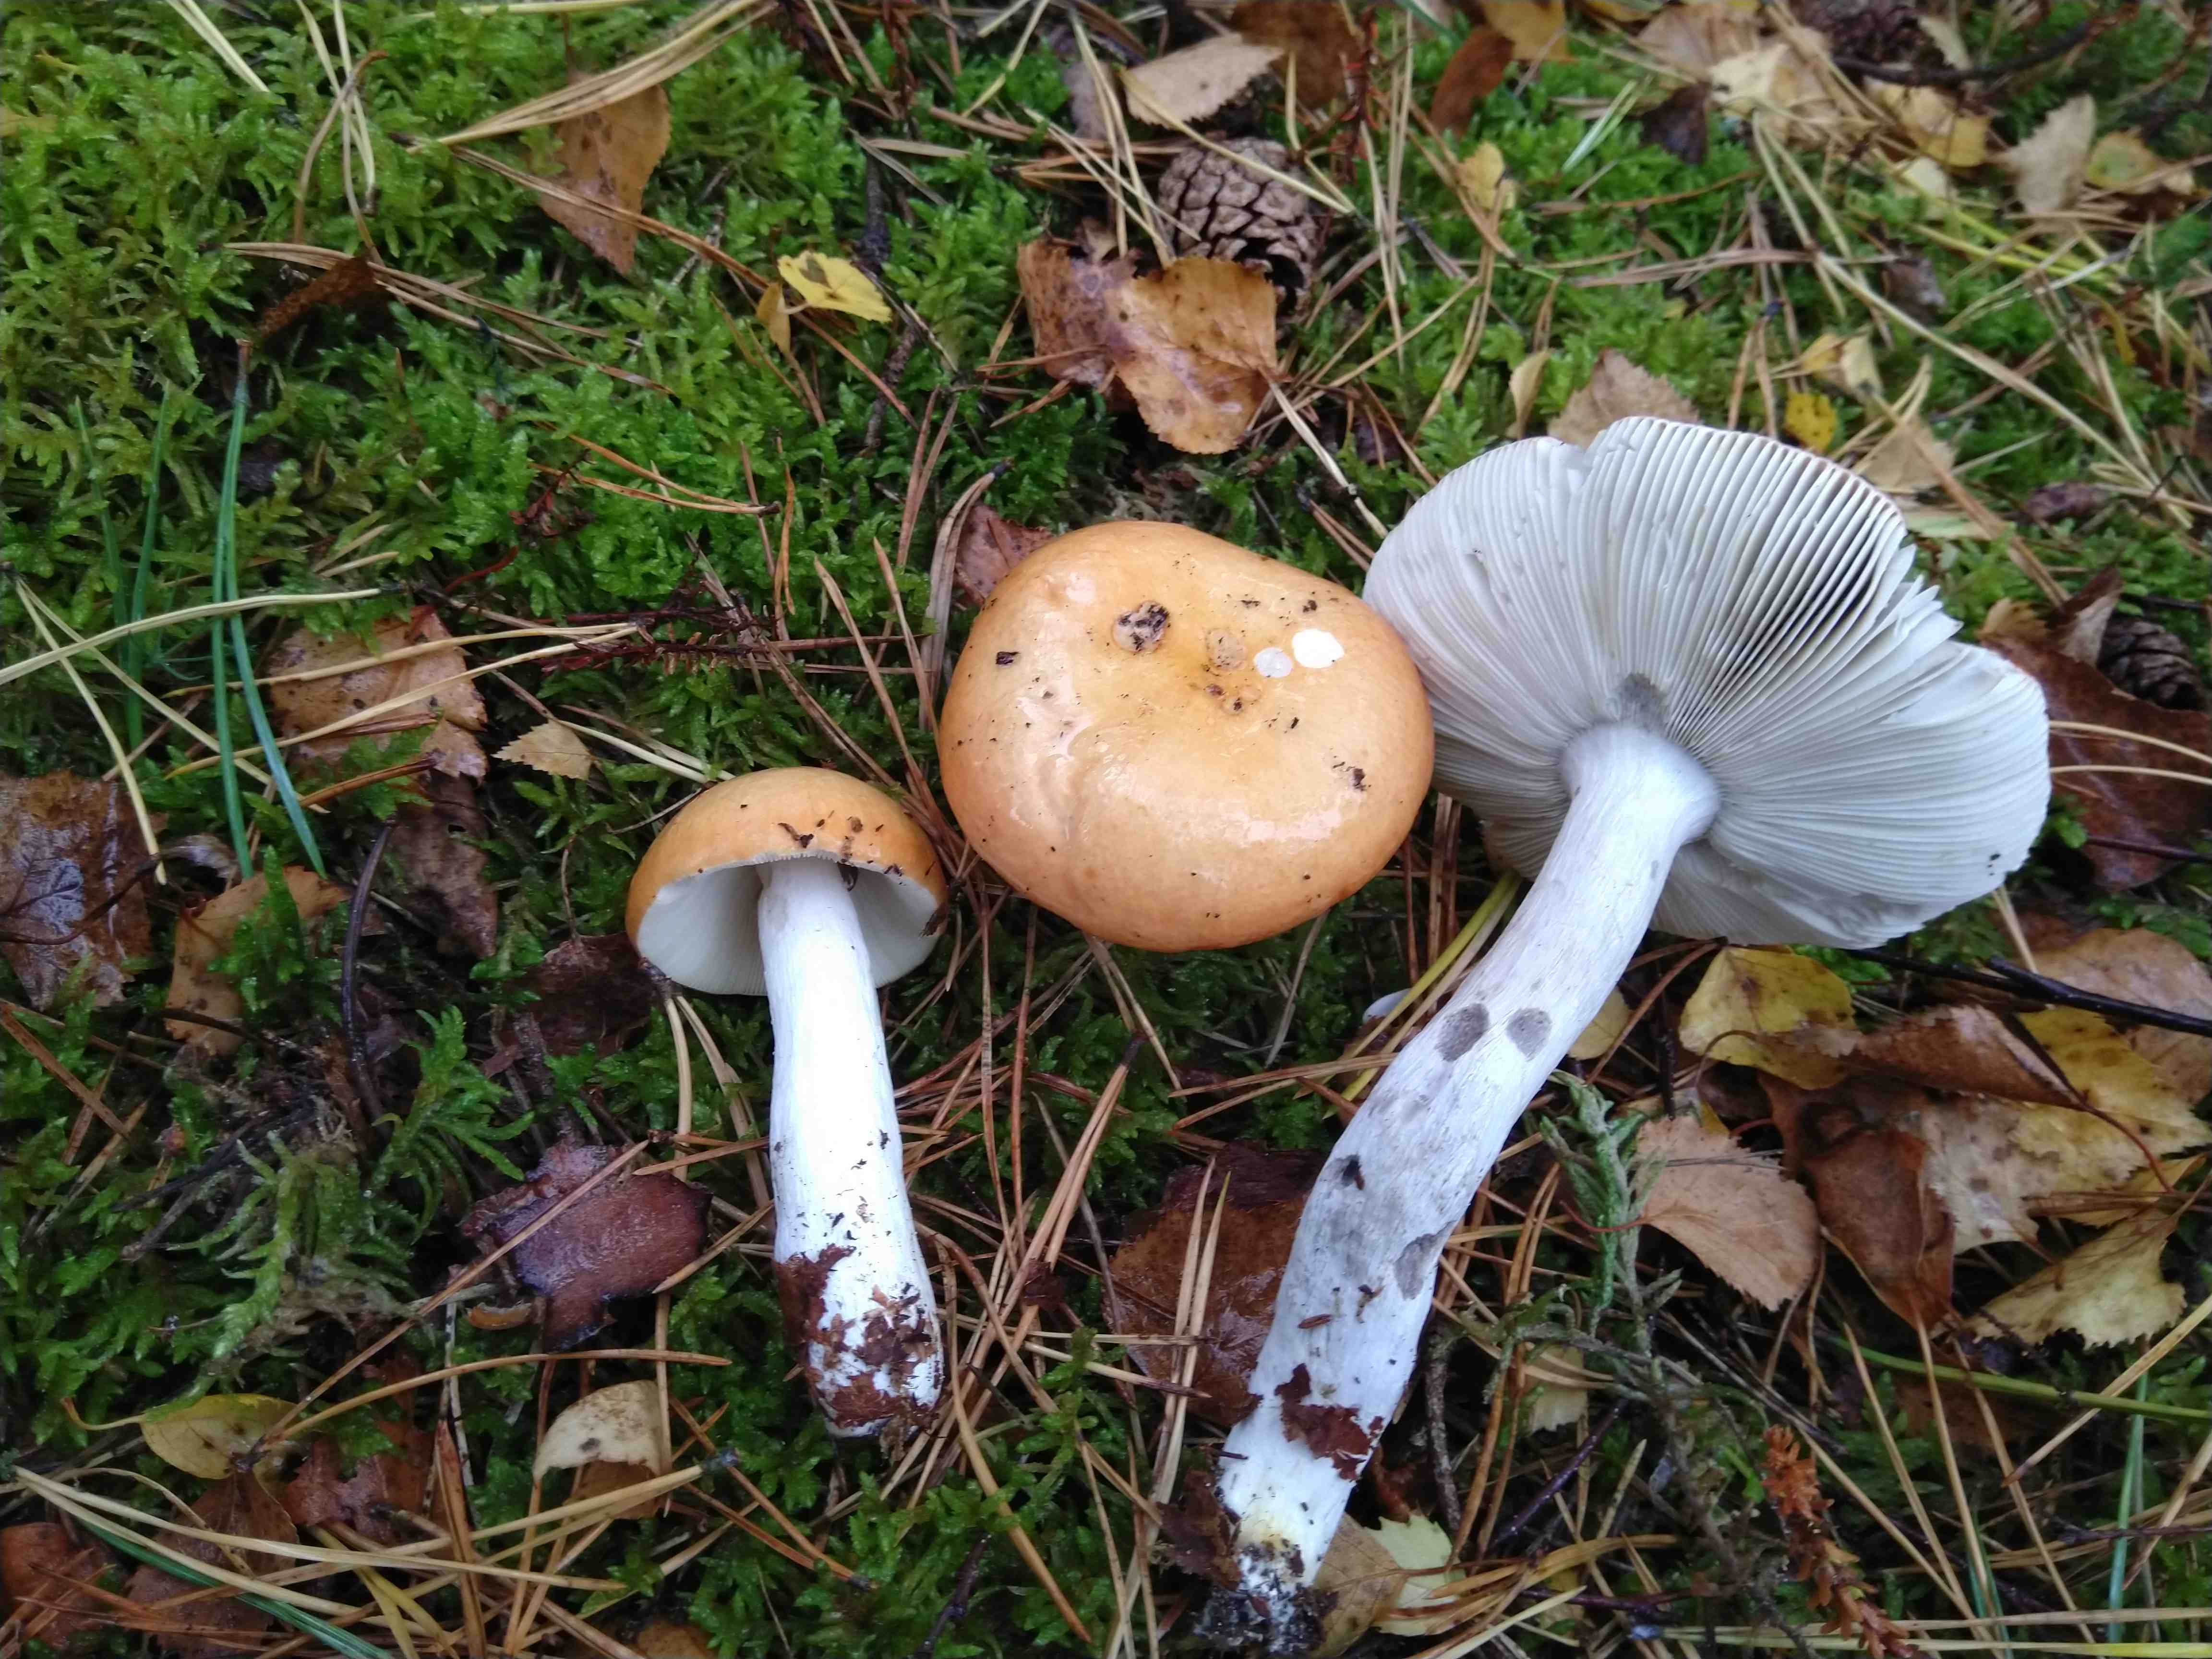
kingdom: Fungi
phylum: Basidiomycota
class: Agaricomycetes
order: Russulales
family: Russulaceae
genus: Russula
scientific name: Russula decolorans
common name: afblegende skørhat
